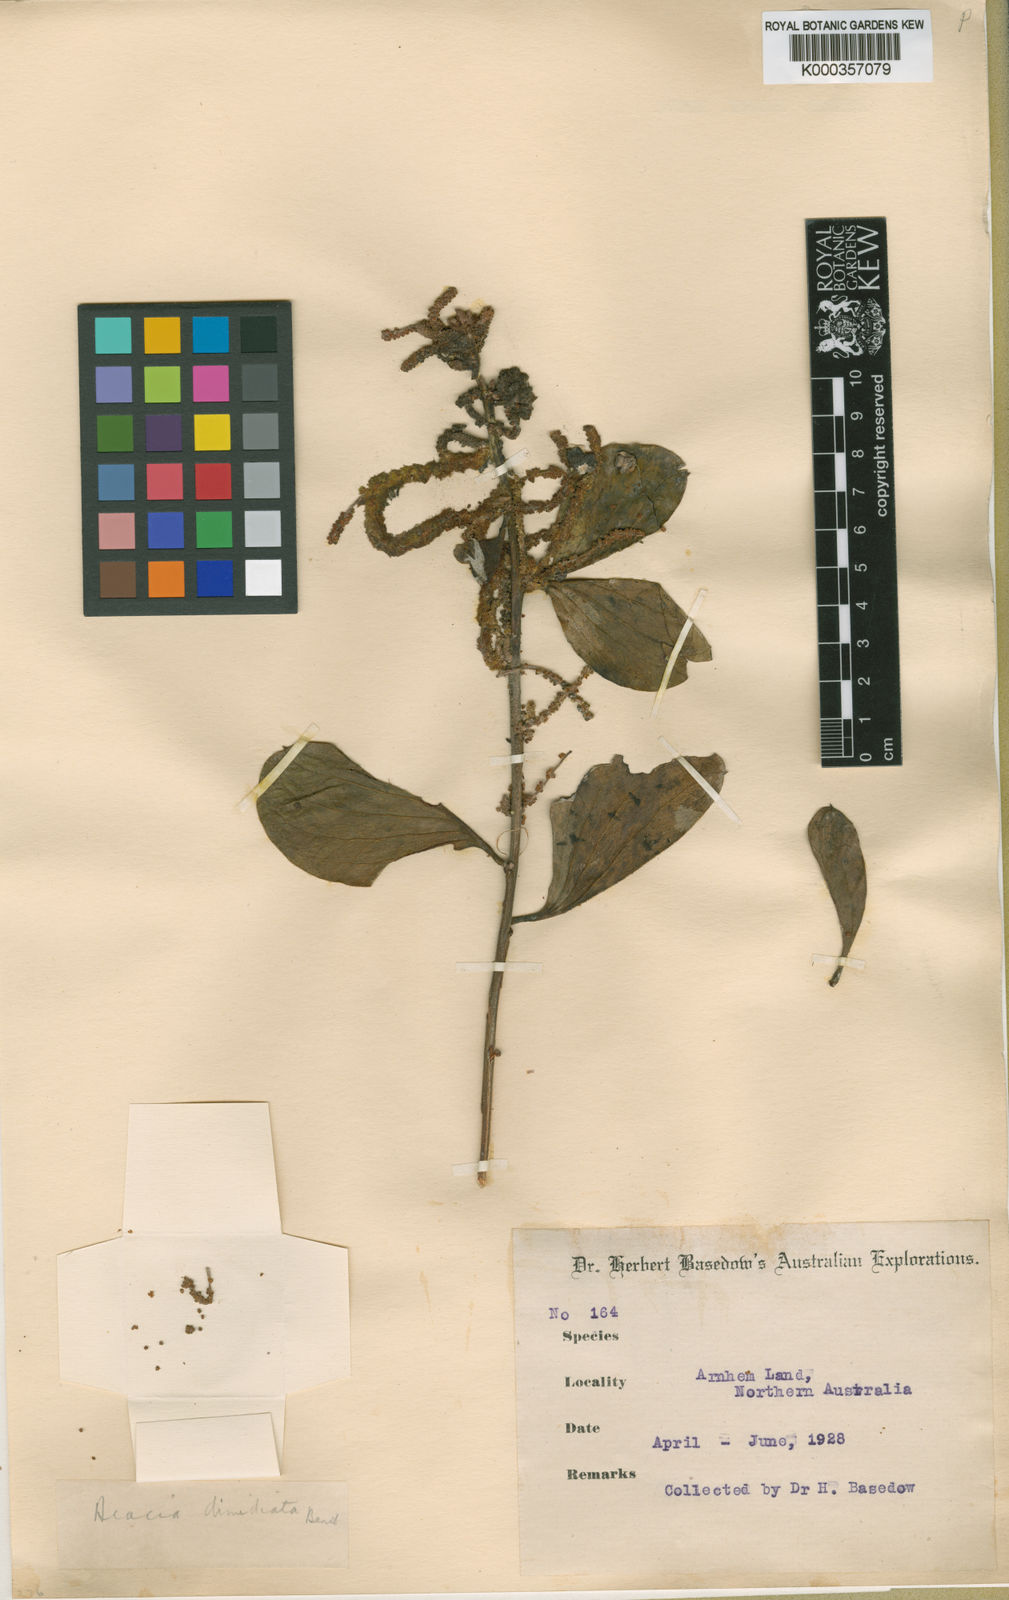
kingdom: Plantae
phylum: Tracheophyta
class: Magnoliopsida
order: Fabales
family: Fabaceae
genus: Acacia
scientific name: Acacia dimidiata
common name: Swamp wattle
